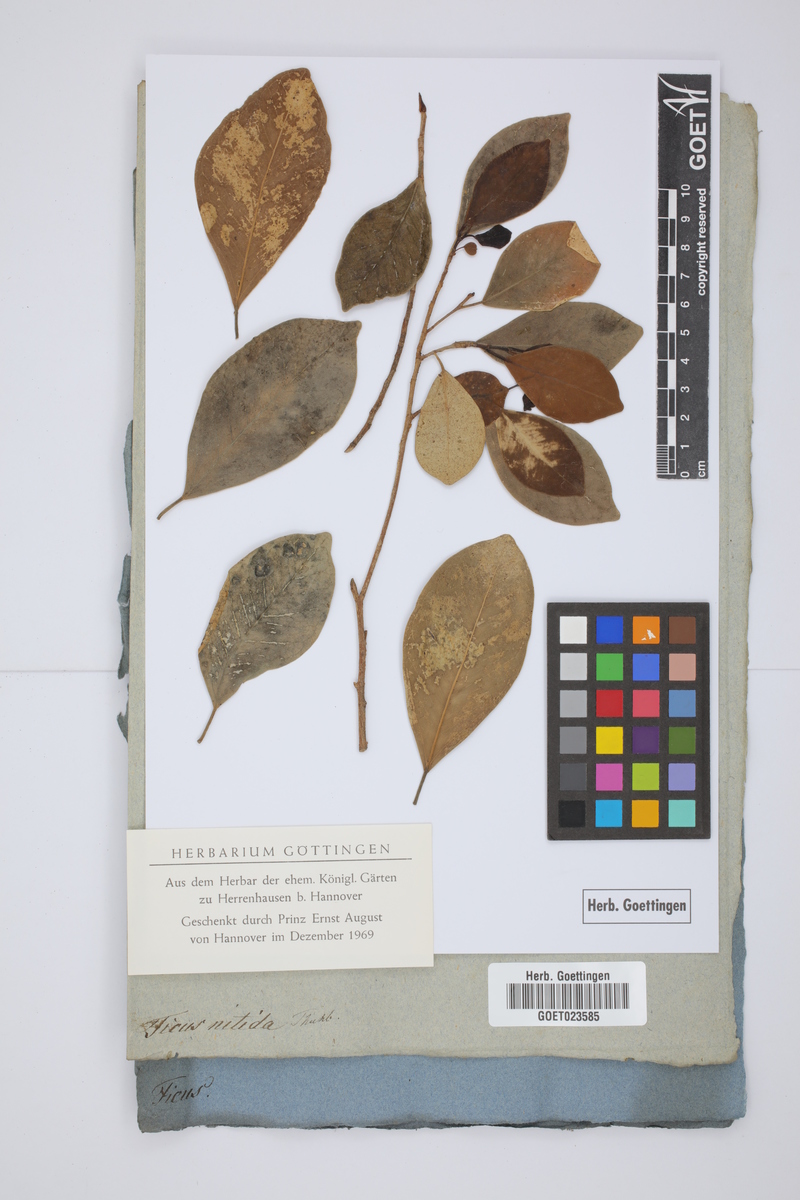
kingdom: Plantae
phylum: Tracheophyta
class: Magnoliopsida
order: Rosales
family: Moraceae
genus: Ficus
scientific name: Ficus benjamina
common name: Weeping fig
